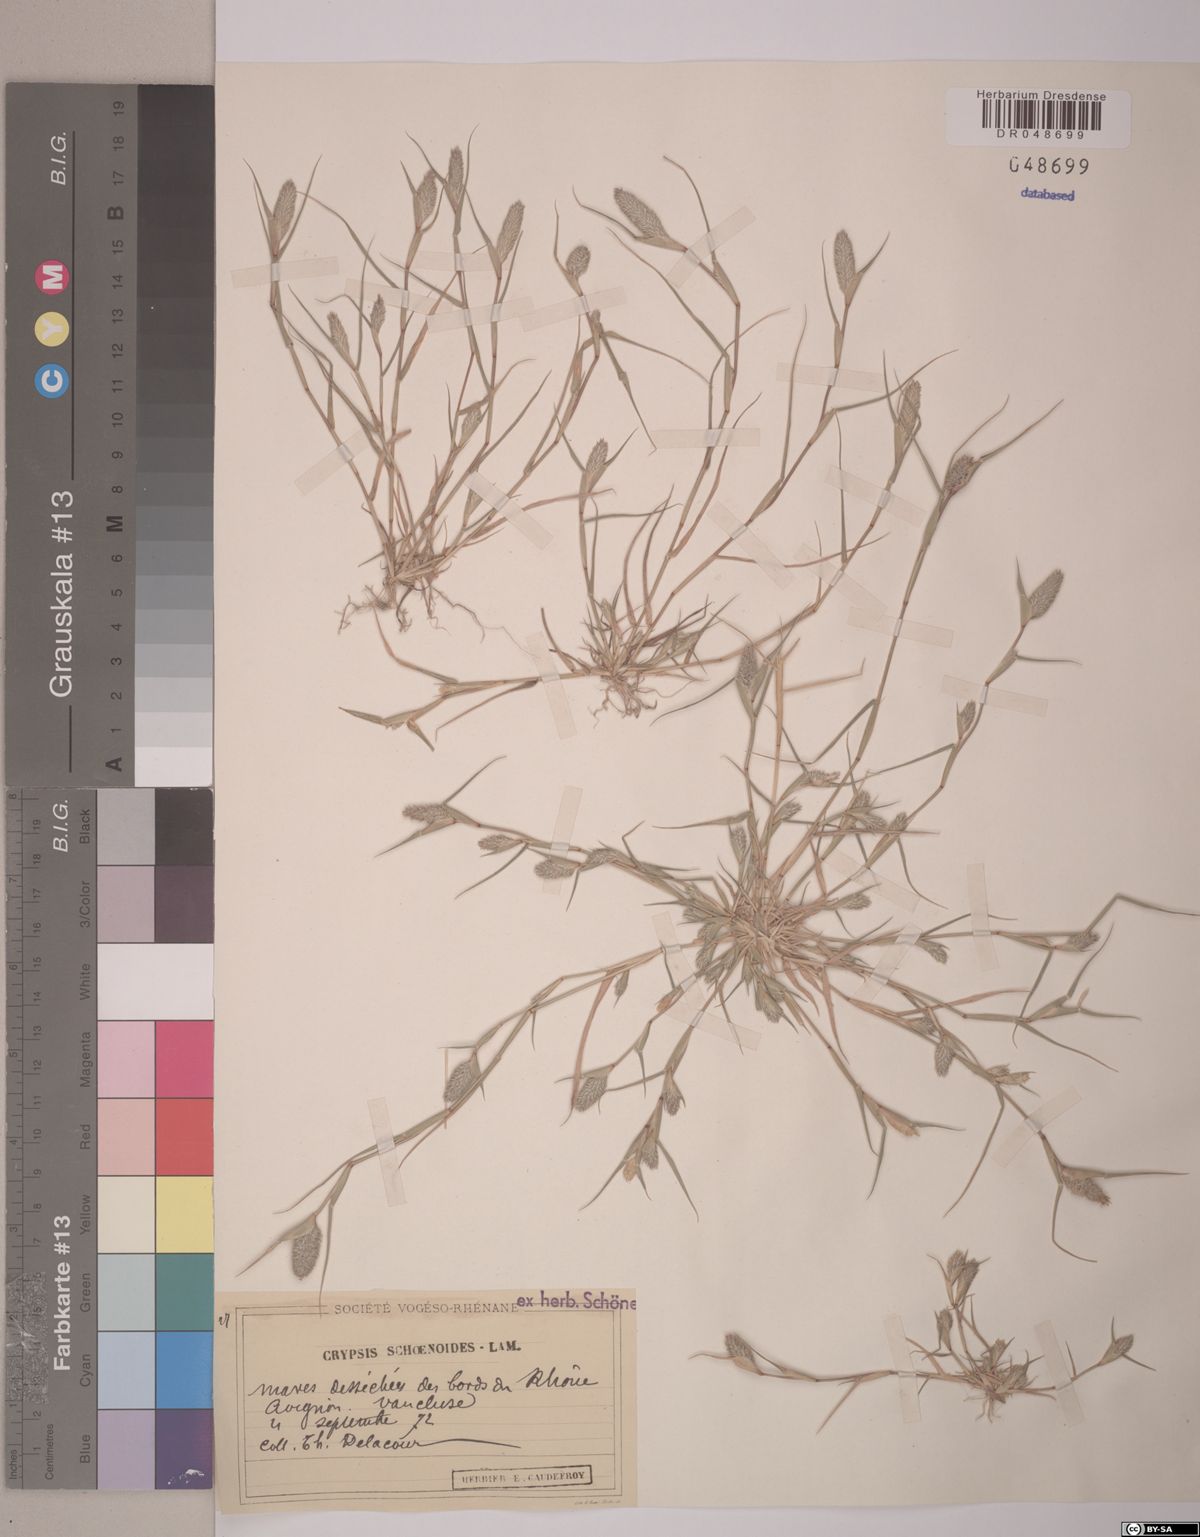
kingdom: Plantae
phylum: Tracheophyta
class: Liliopsida
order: Poales
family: Poaceae
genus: Sporobolus
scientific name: Sporobolus schoenoides
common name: Rush-like timothy
